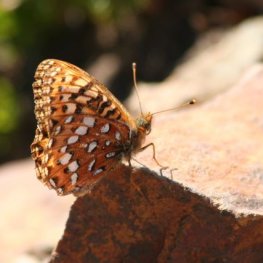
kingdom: Animalia
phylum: Arthropoda
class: Insecta
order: Lepidoptera
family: Nymphalidae
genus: Speyeria
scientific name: Speyeria hydaspe
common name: Hydaspe Fritillary
